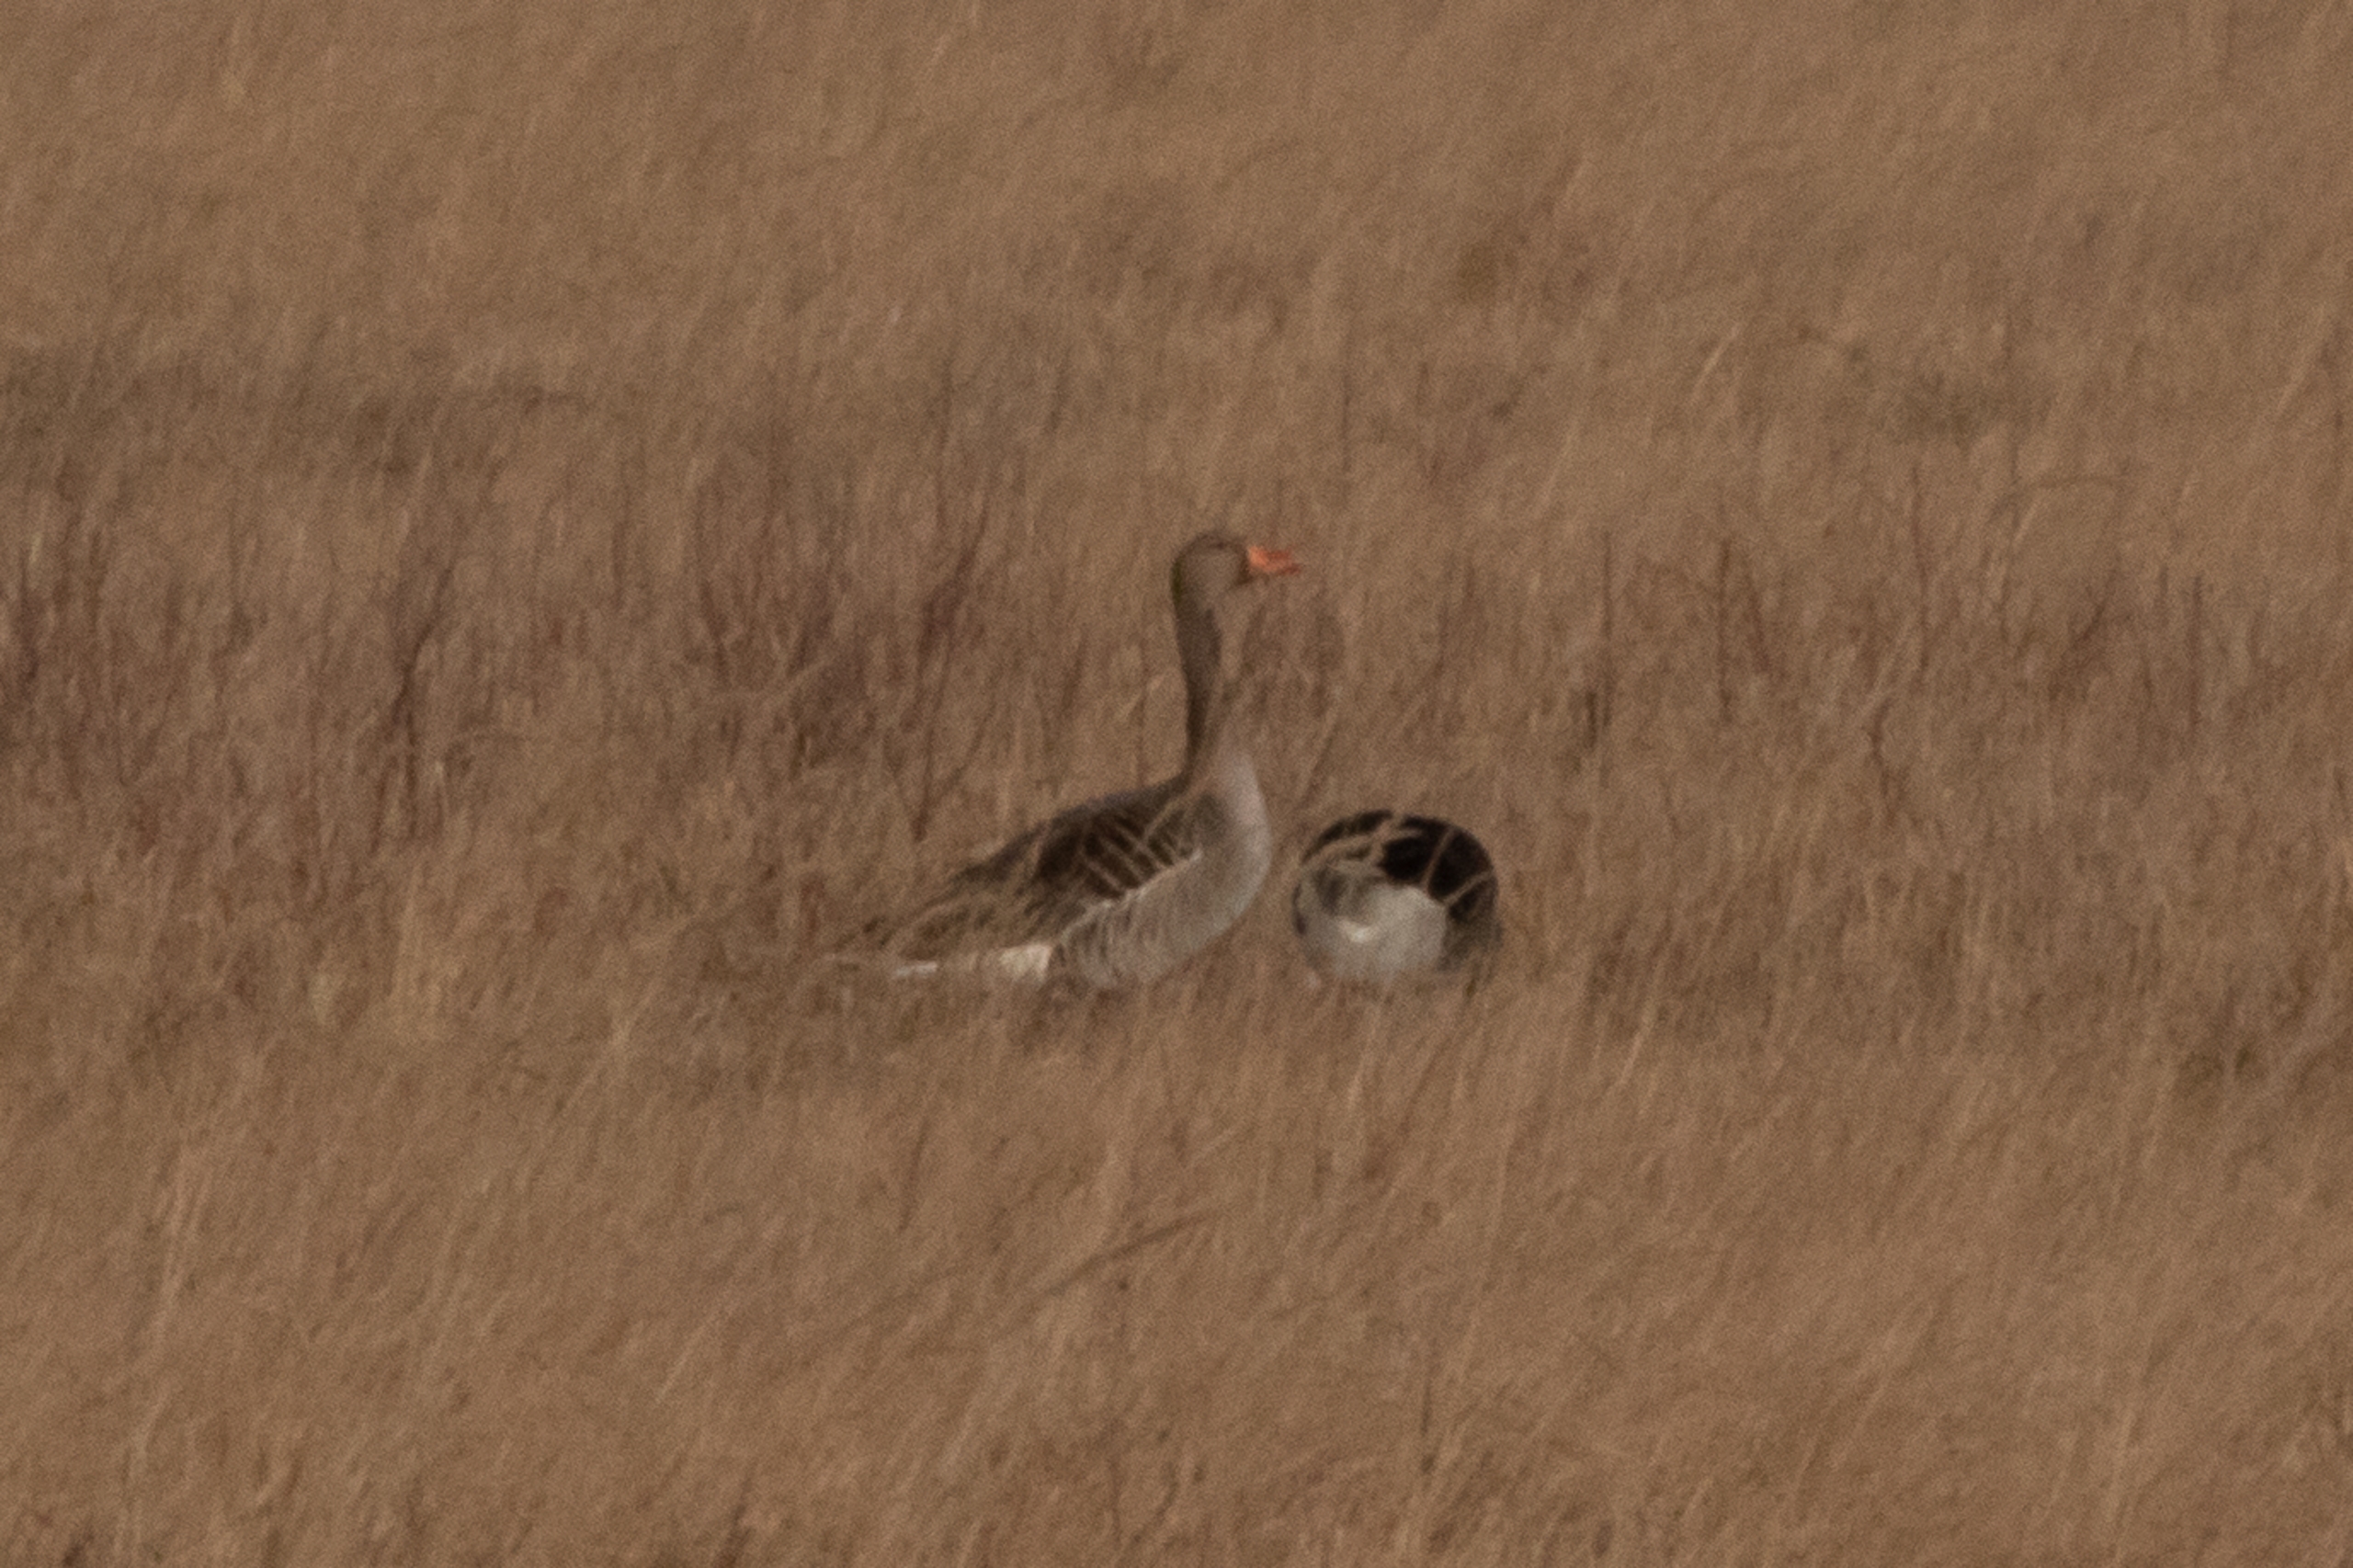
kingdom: Animalia
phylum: Chordata
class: Aves
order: Anseriformes
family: Anatidae
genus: Anser
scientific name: Anser anser
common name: Grågås
